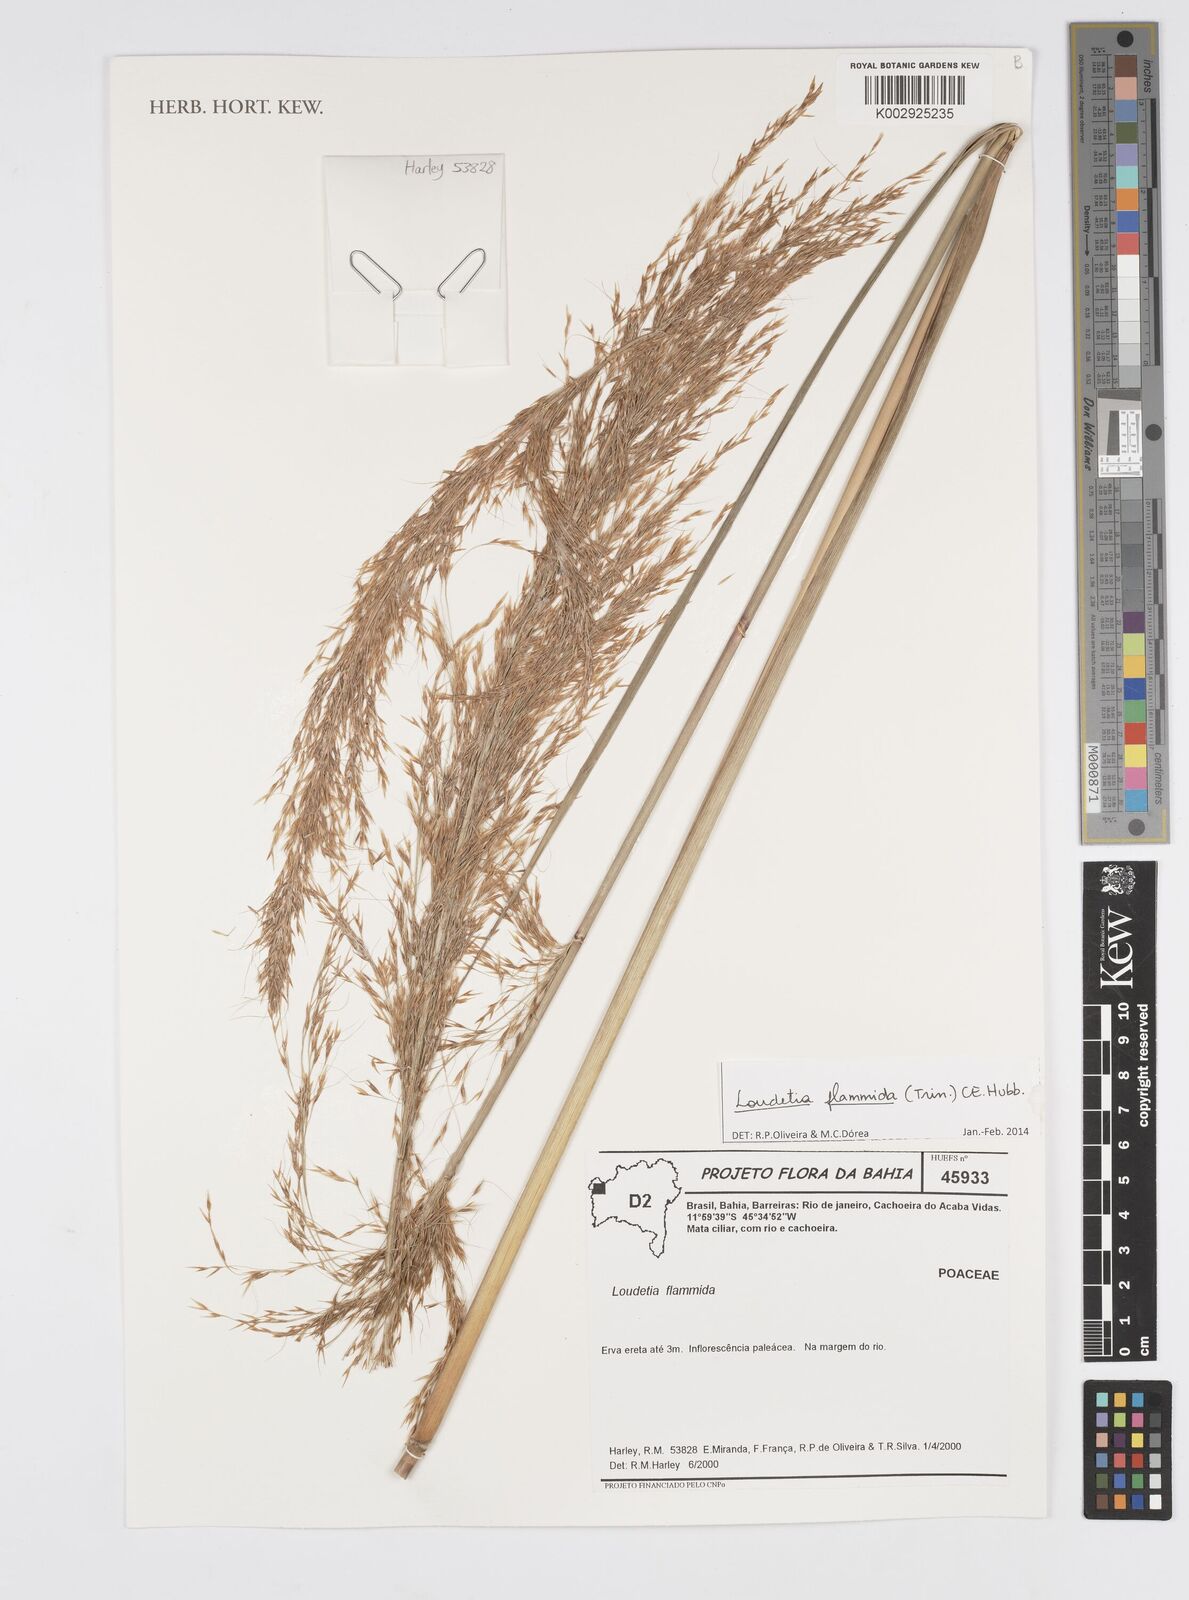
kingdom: Plantae
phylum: Tracheophyta
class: Liliopsida
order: Poales
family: Poaceae
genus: Loudetia
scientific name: Loudetia flammida
